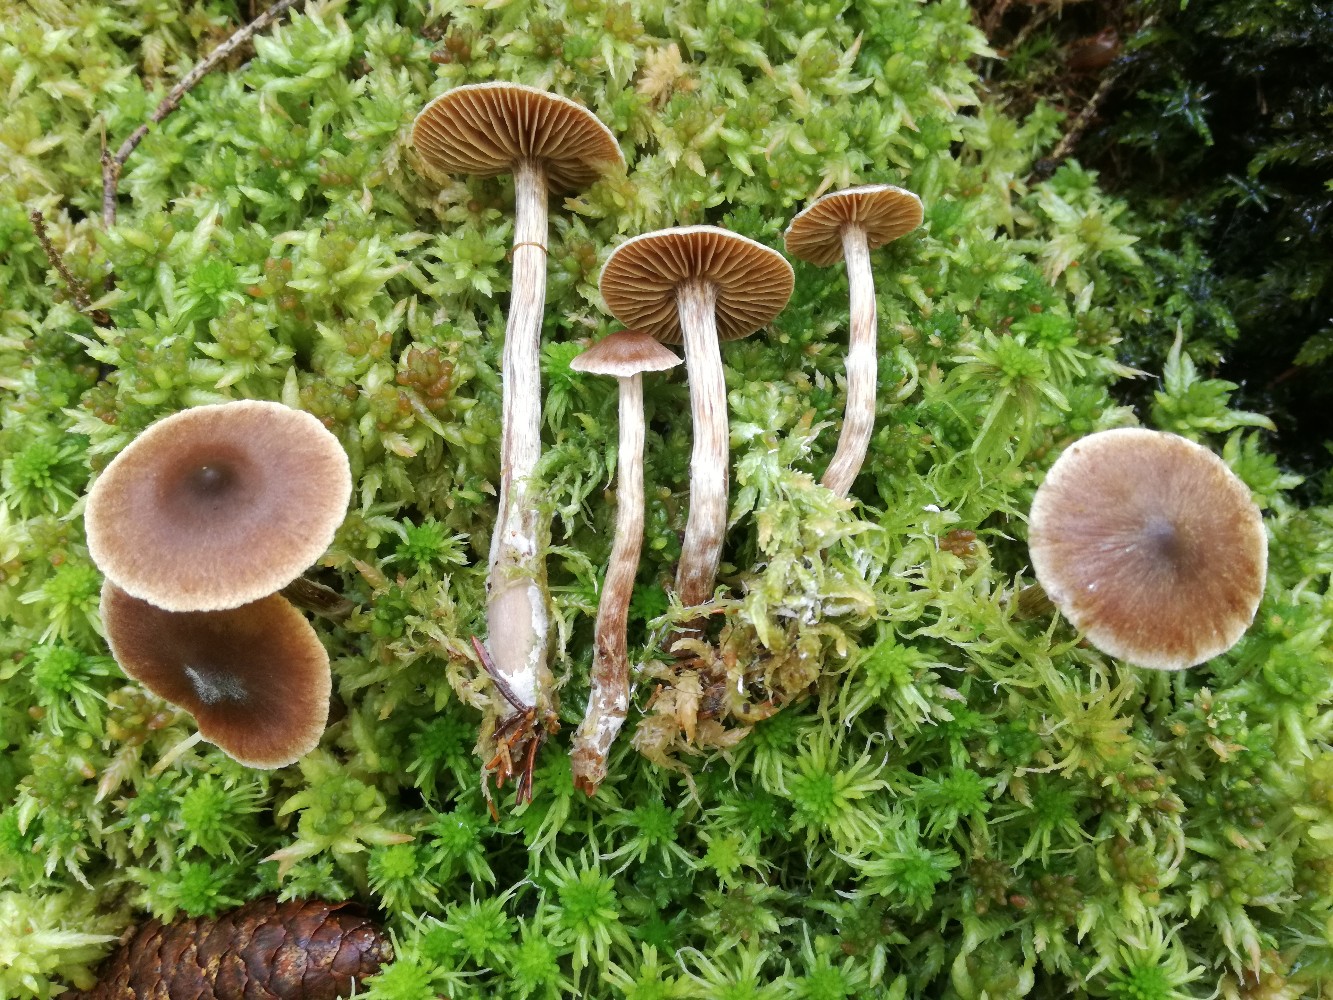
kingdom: Fungi
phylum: Basidiomycota
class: Agaricomycetes
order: Agaricales
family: Cortinariaceae
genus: Cortinarius
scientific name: Cortinarius nigrocuspidatus
